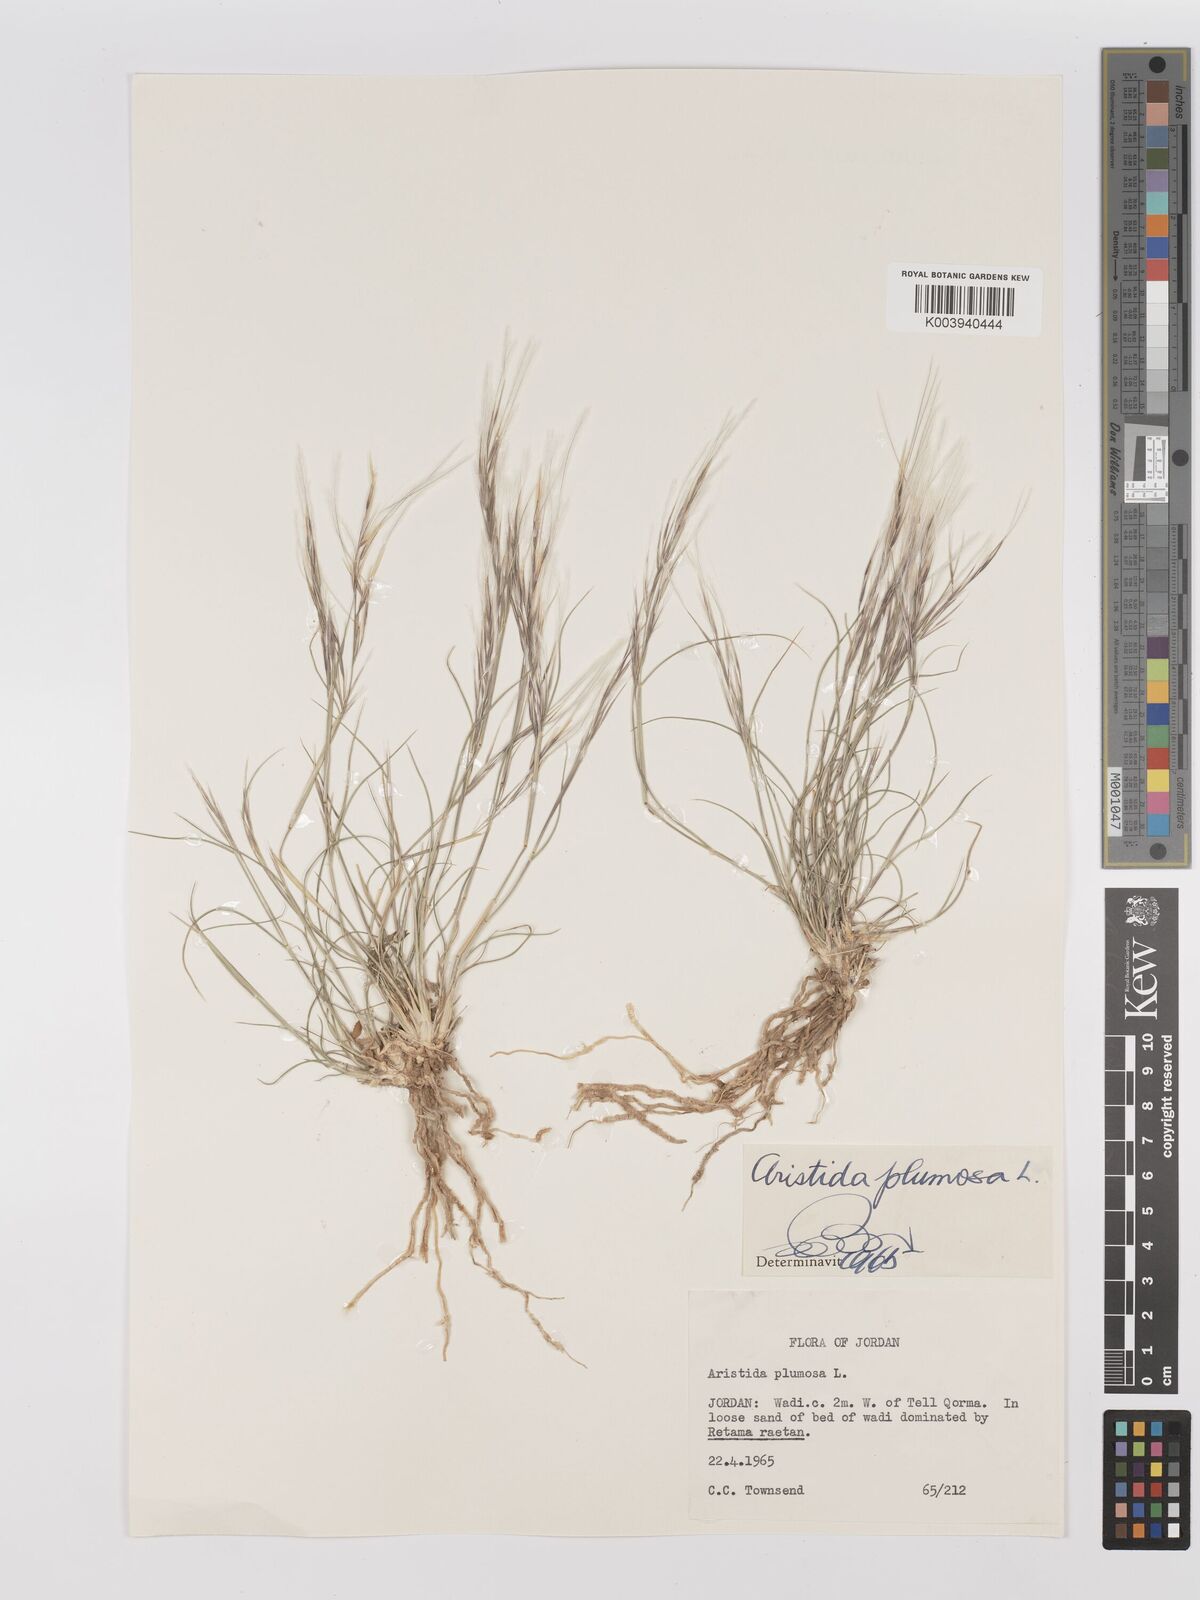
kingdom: Plantae
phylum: Tracheophyta
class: Liliopsida
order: Poales
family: Poaceae
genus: Stipagrostis
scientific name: Stipagrostis plumosa
